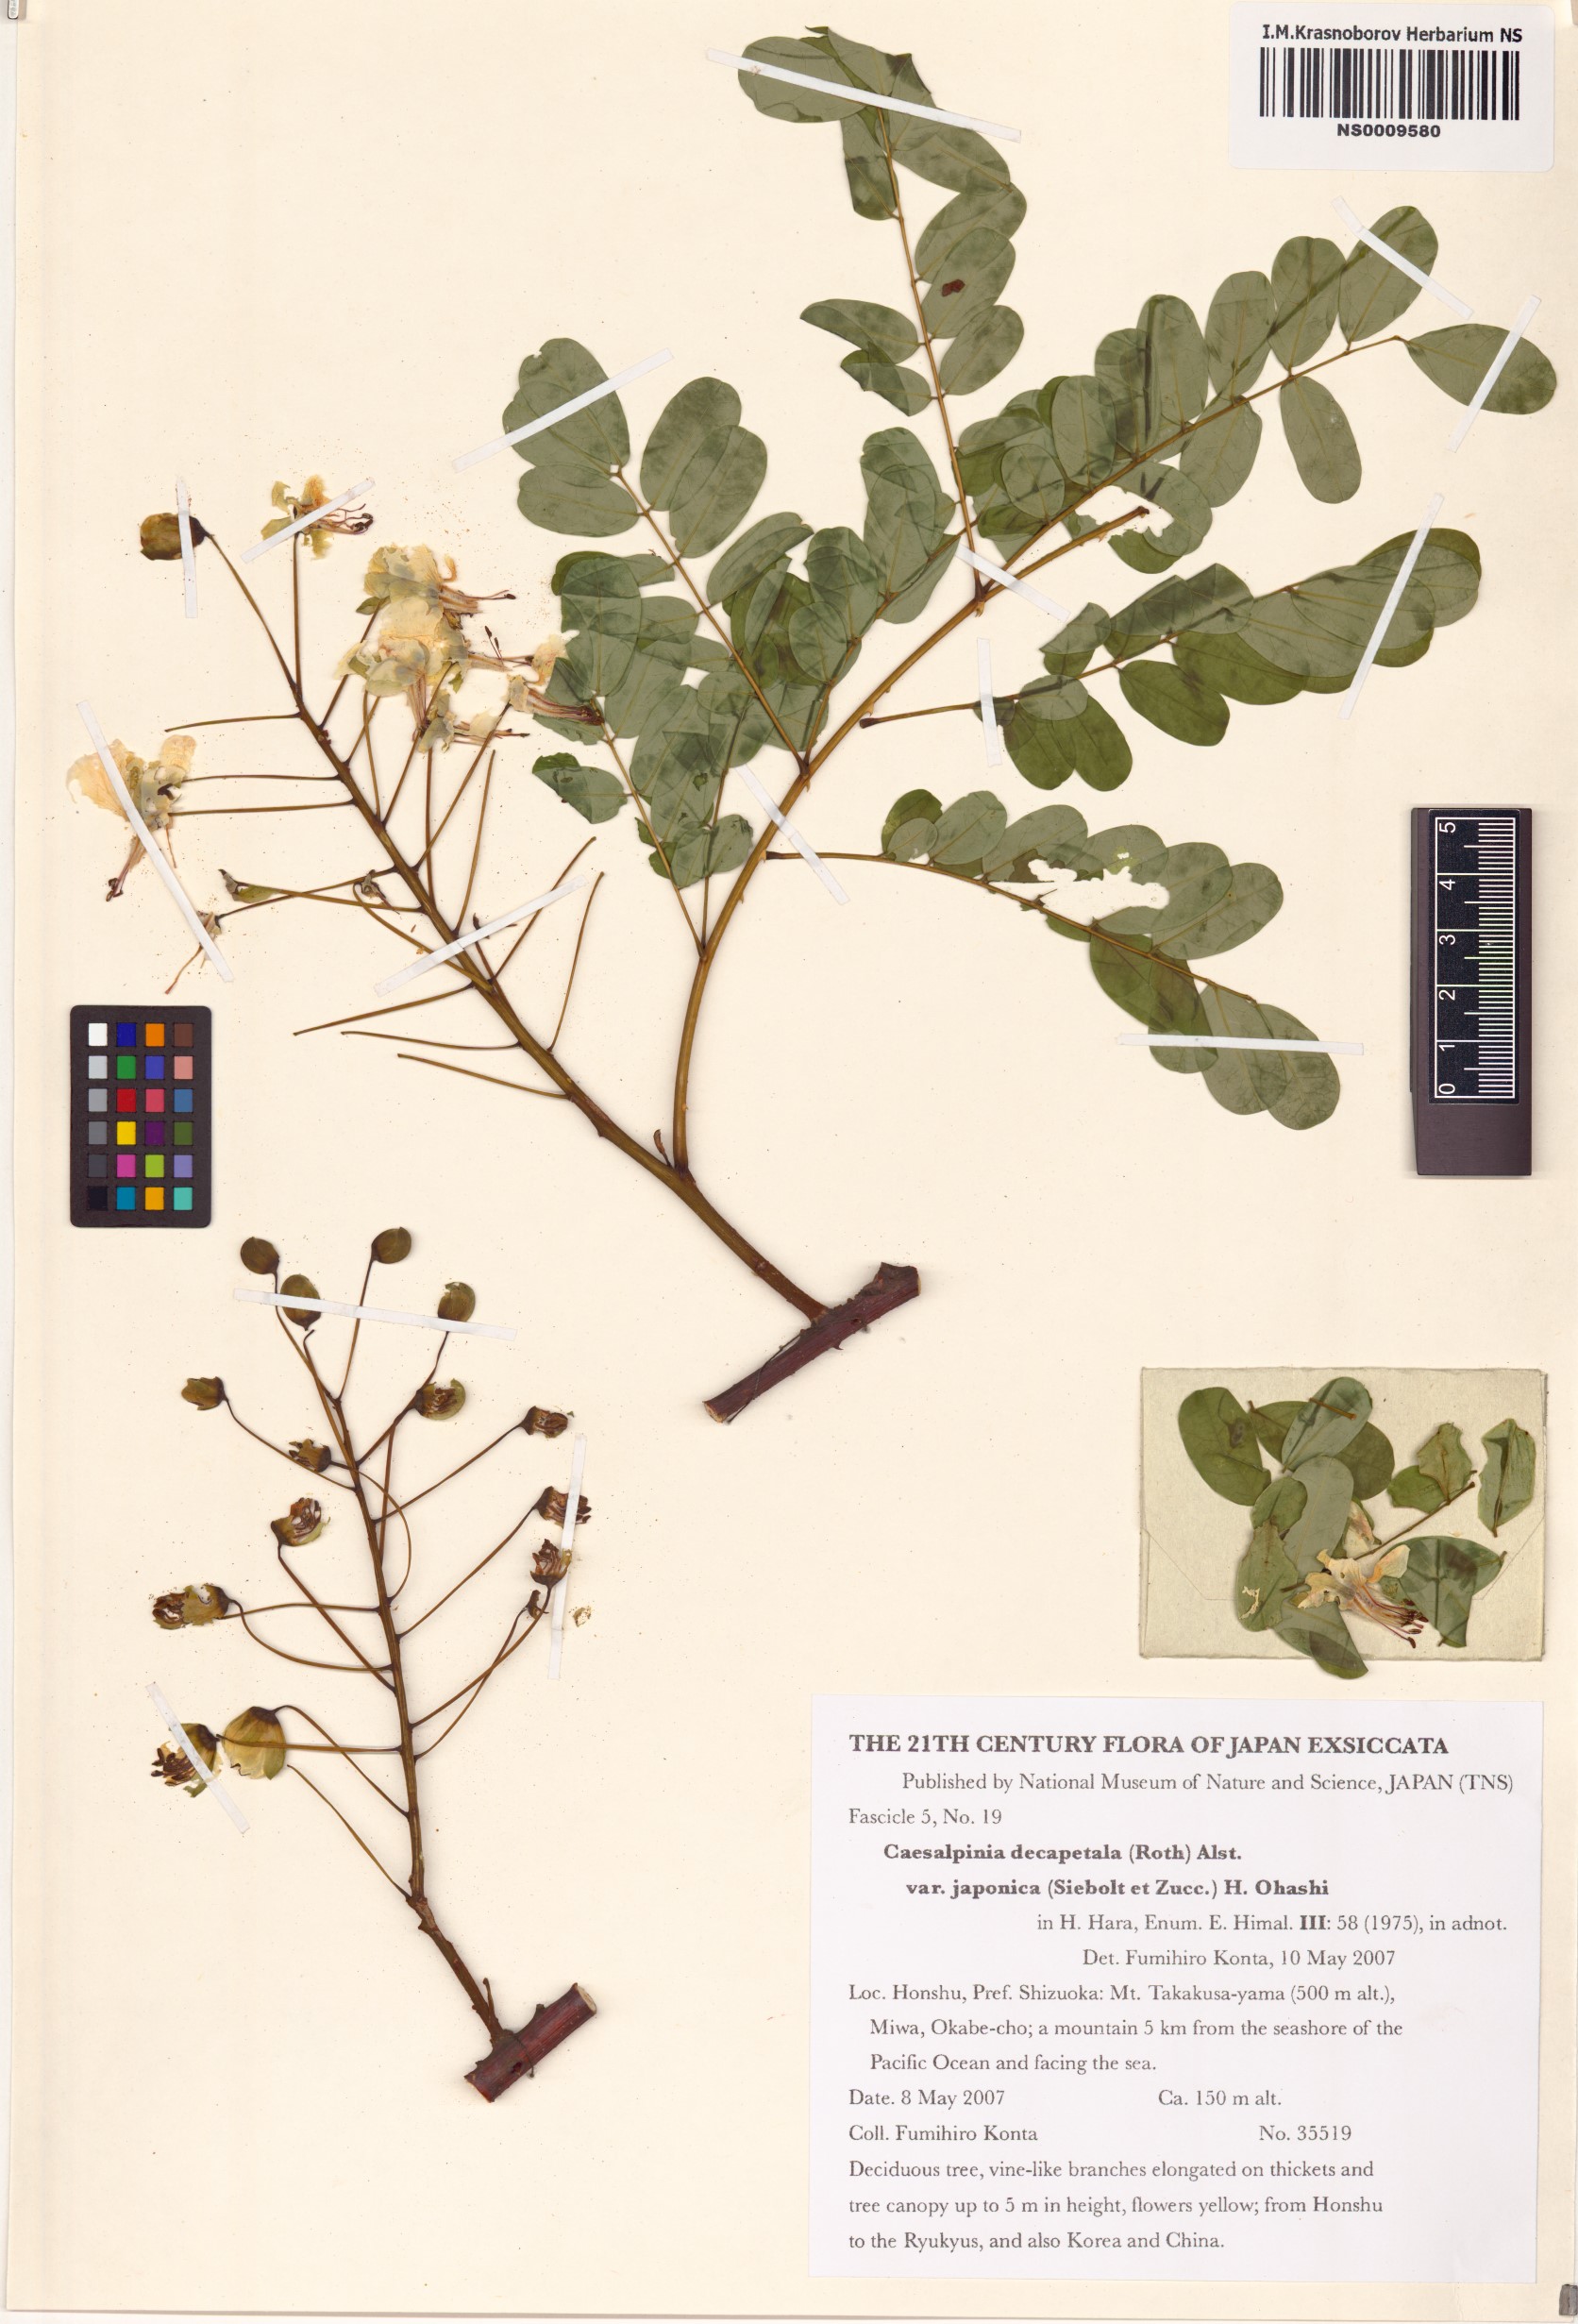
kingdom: Plantae
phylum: Tracheophyta
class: Magnoliopsida
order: Fabales
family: Fabaceae
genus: Biancaea
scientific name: Biancaea decapetala
